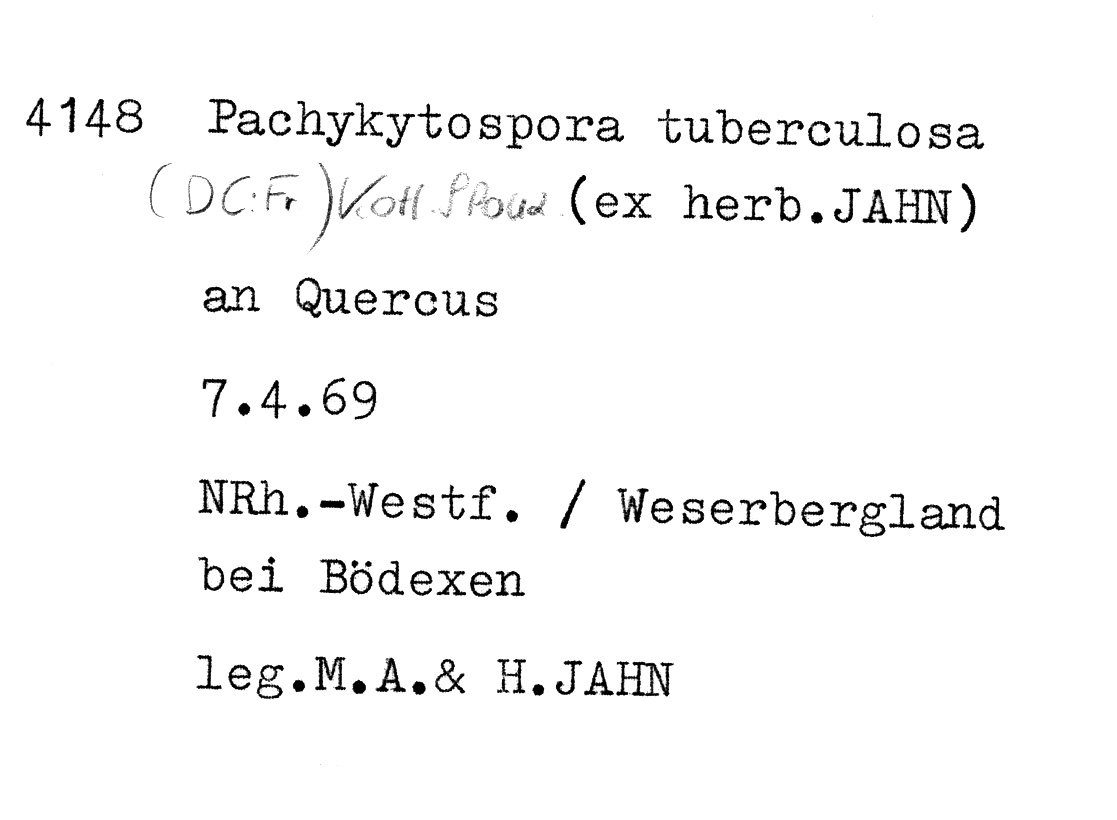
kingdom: Fungi
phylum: Basidiomycota
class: Agaricomycetes
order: Polyporales
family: Polyporaceae
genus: Pachykytospora
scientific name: Pachykytospora tuberculosa
